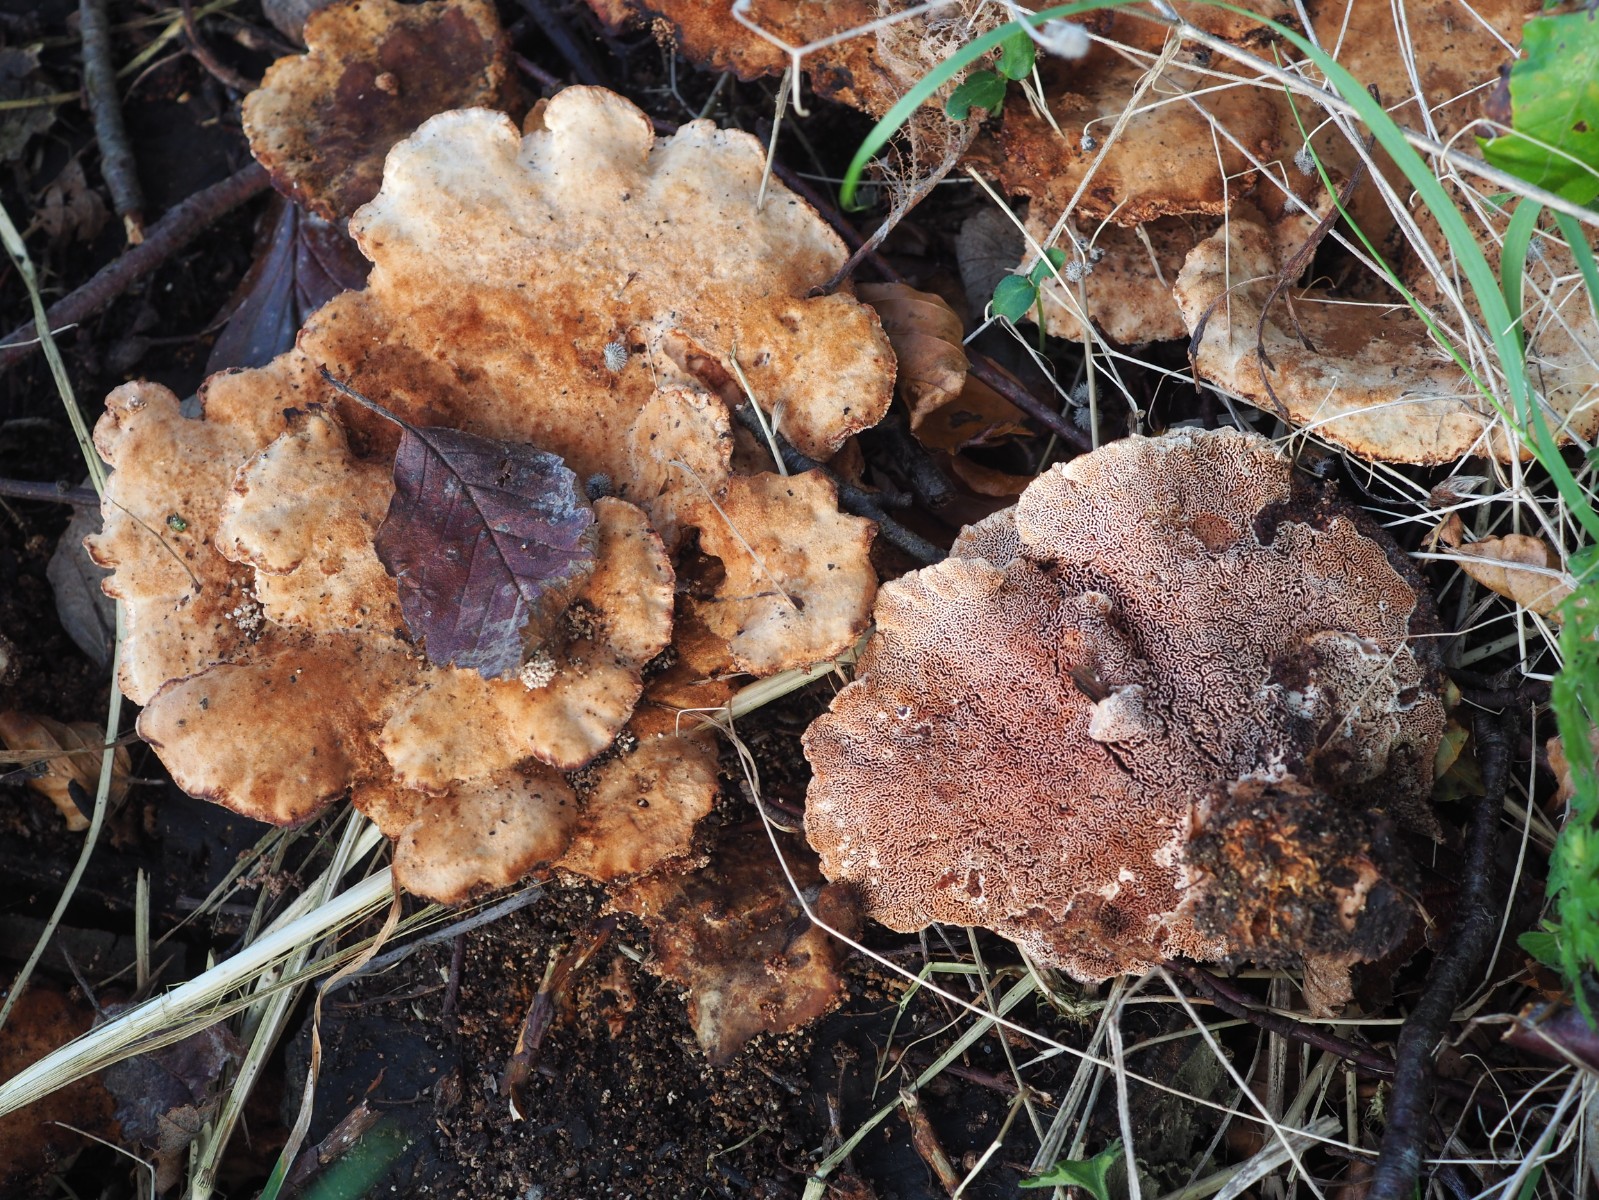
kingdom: Fungi
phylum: Basidiomycota
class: Agaricomycetes
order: Polyporales
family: Polyporaceae
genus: Daedaleopsis
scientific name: Daedaleopsis confragosa
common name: rødmende læderporesvamp
